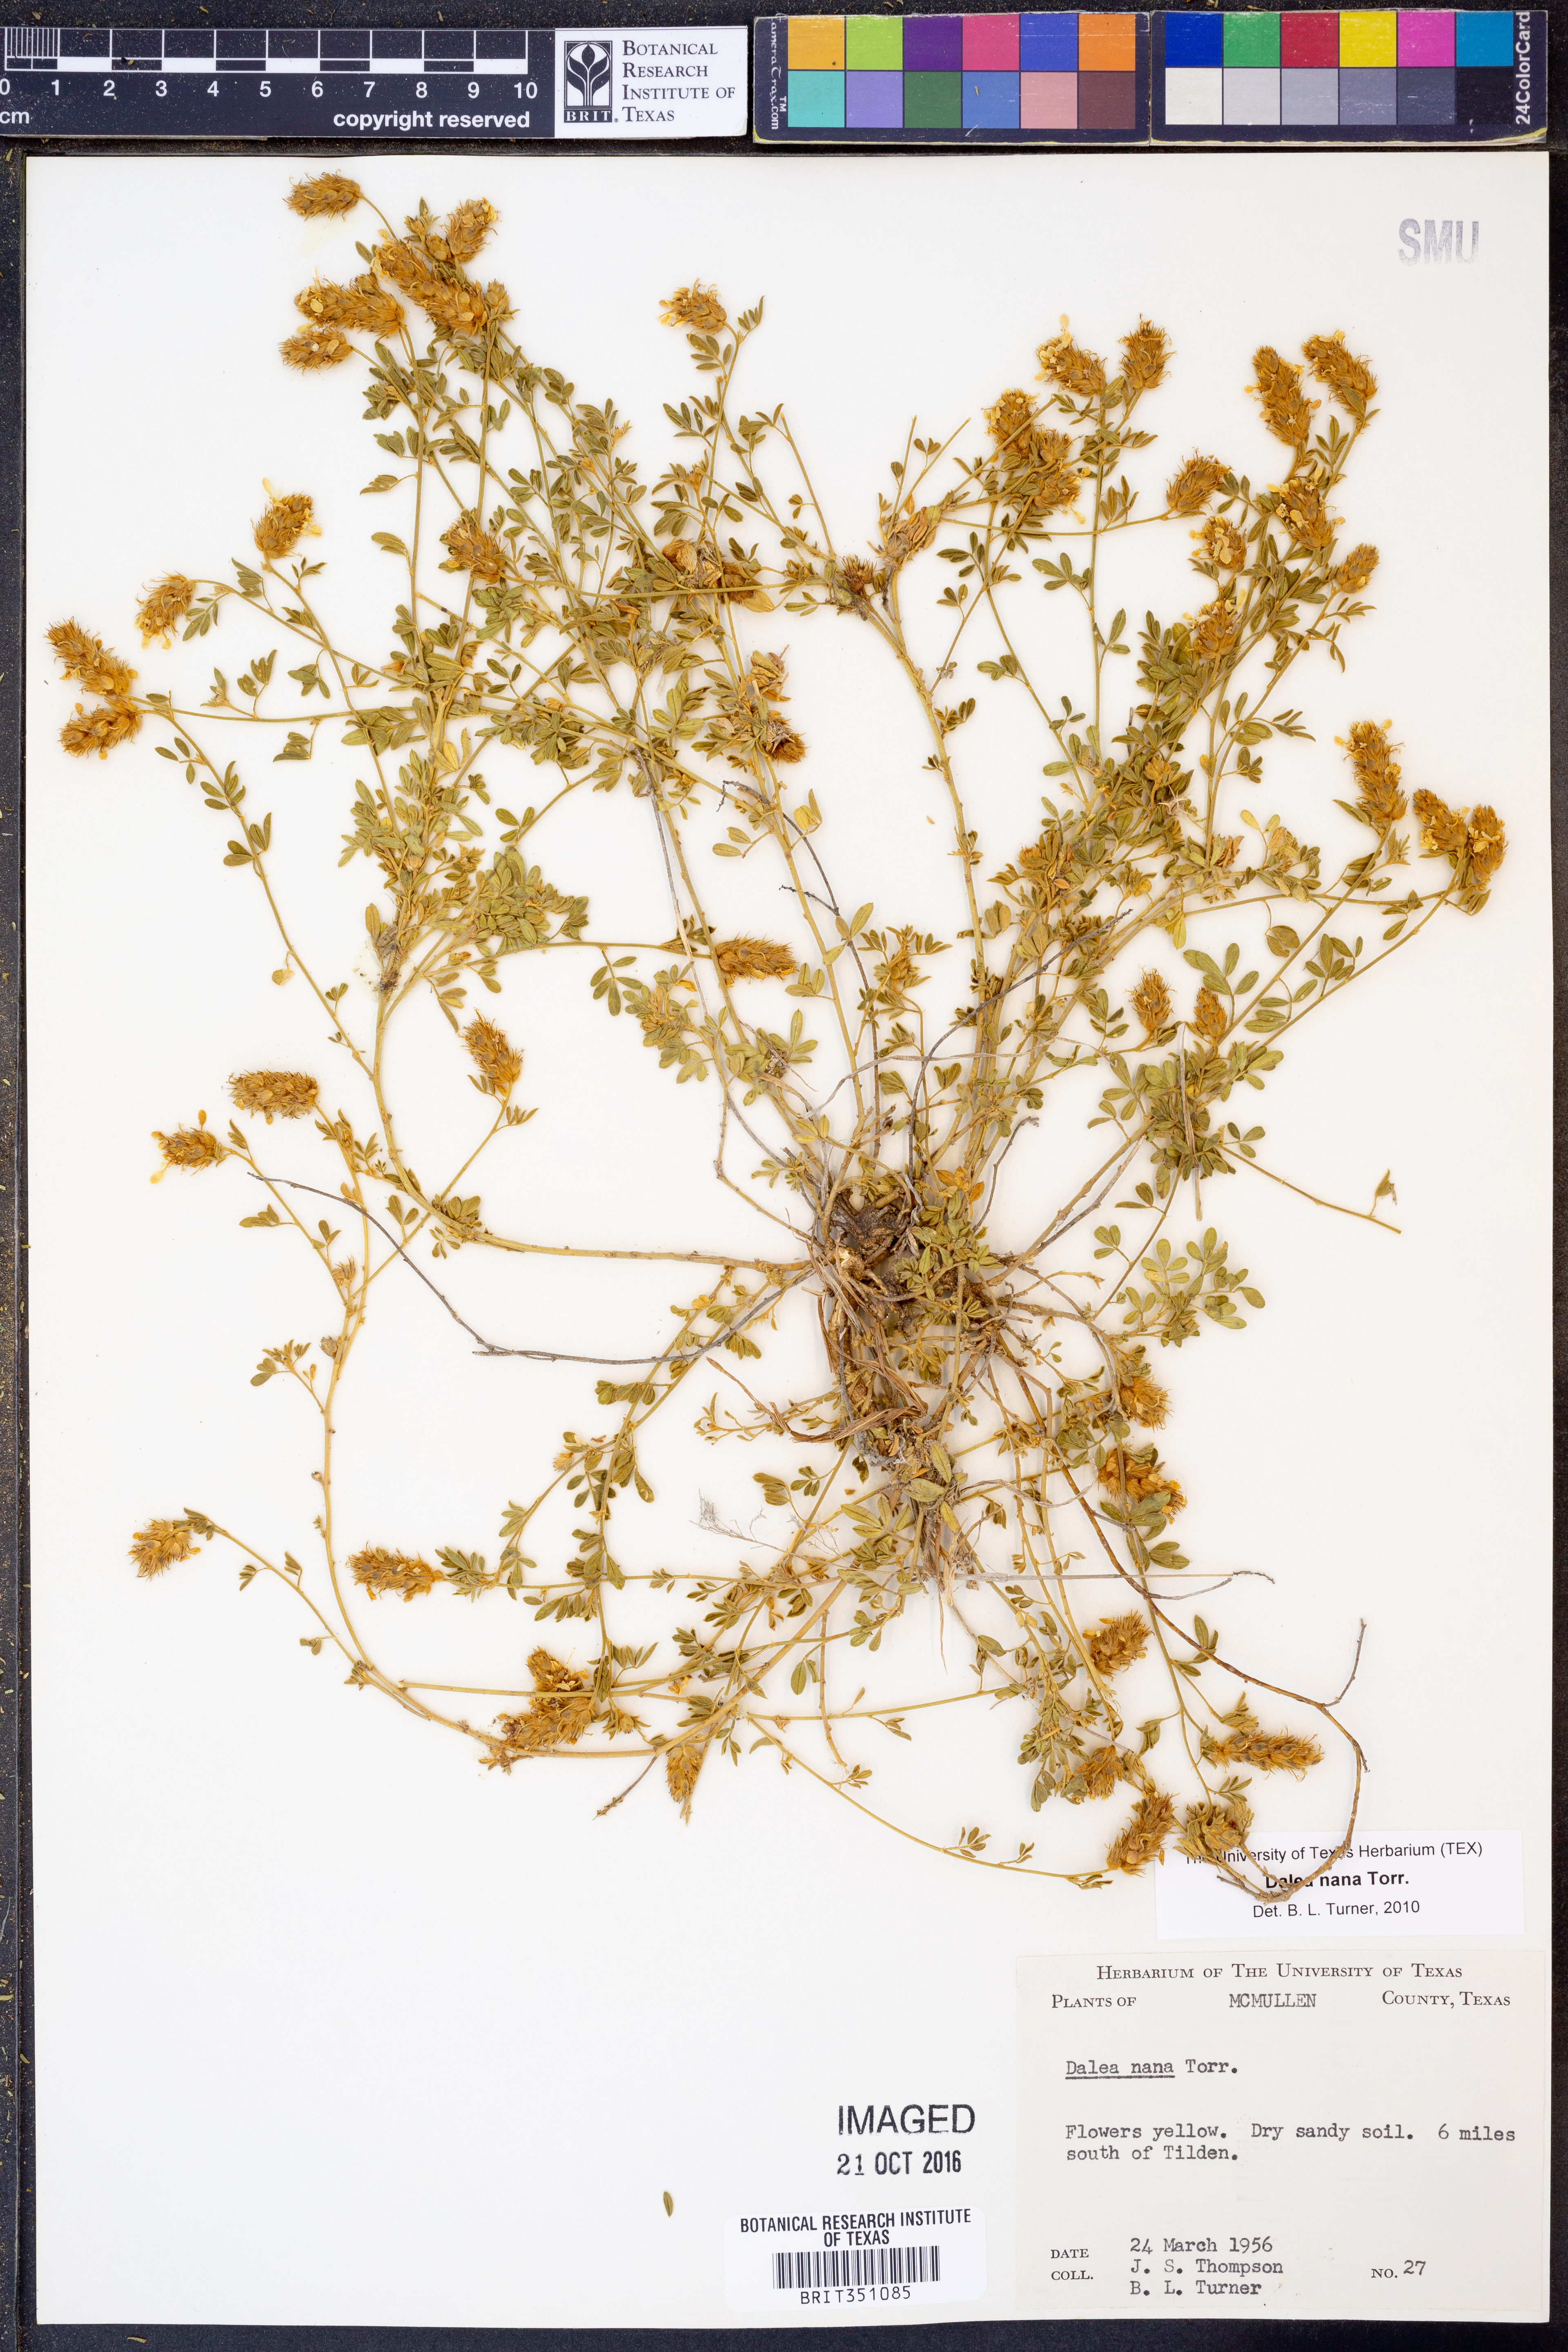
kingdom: Plantae
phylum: Tracheophyta
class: Magnoliopsida
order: Fabales
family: Fabaceae
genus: Dalea
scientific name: Dalea nana
